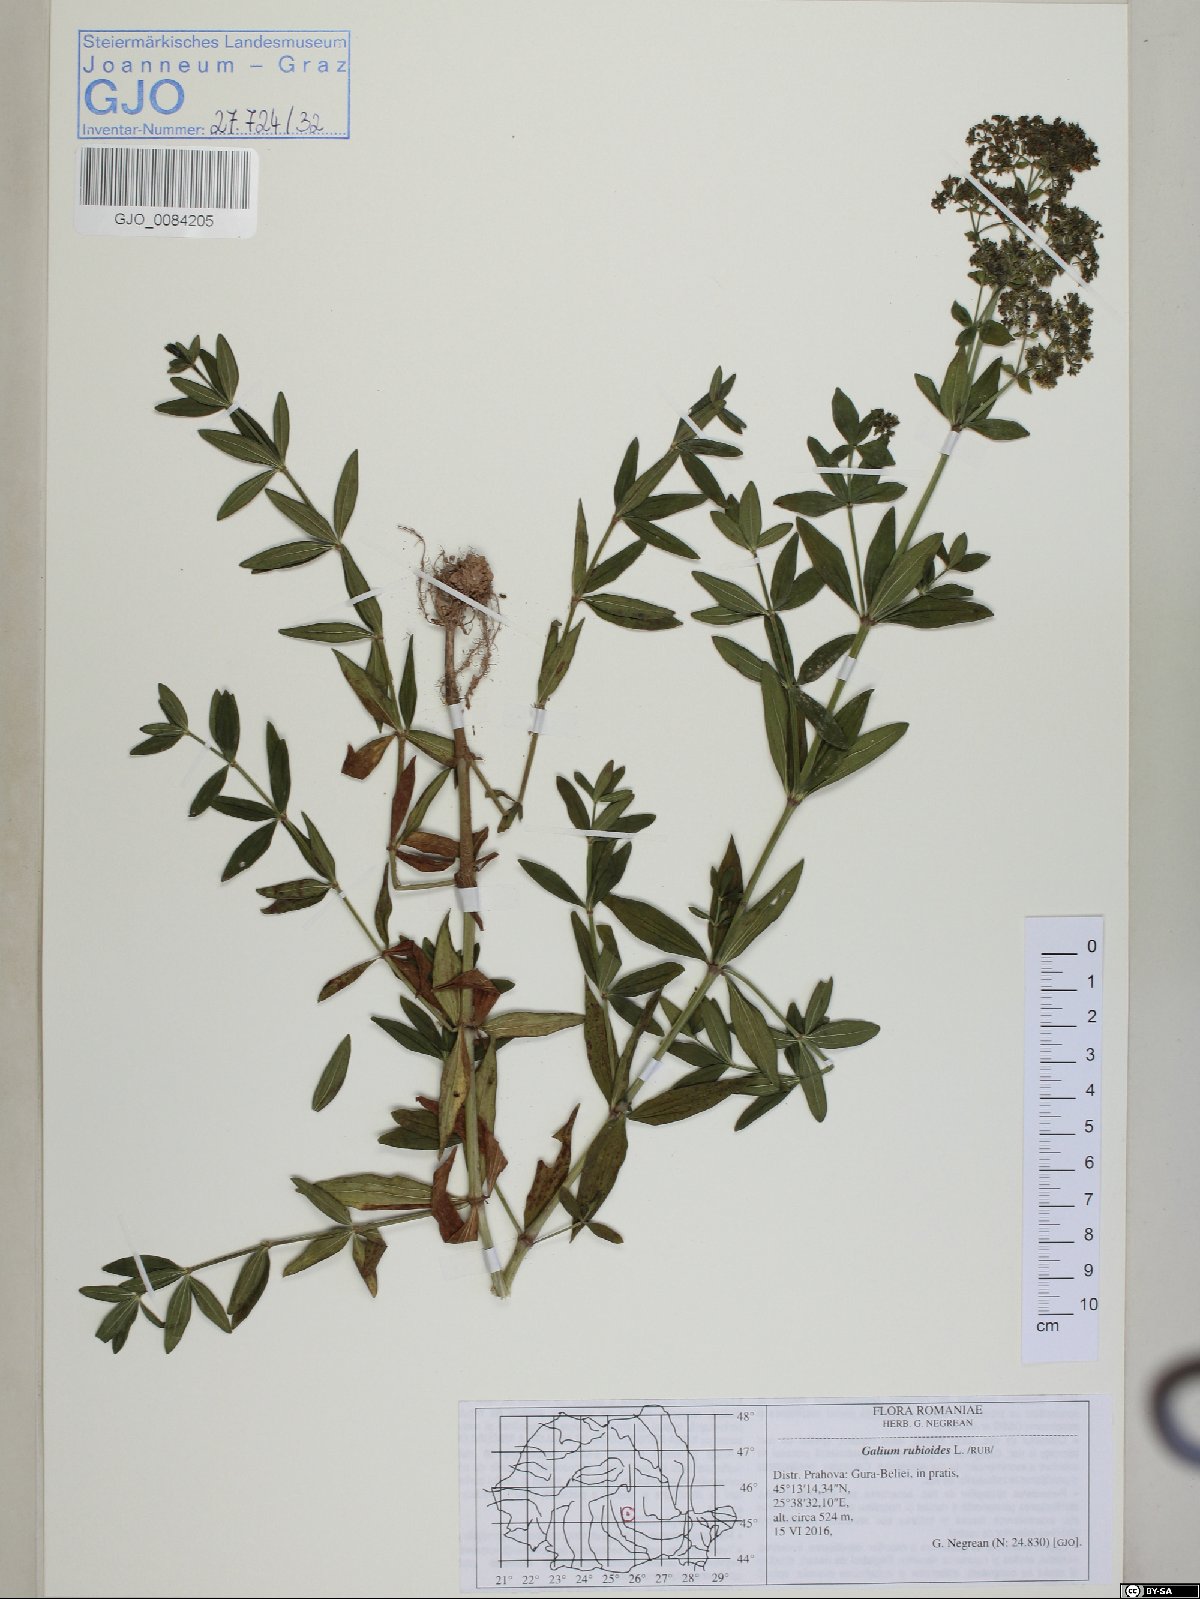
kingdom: Plantae
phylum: Tracheophyta
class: Magnoliopsida
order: Gentianales
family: Rubiaceae
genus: Galium
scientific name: Galium rubioides
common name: European bedstraw
